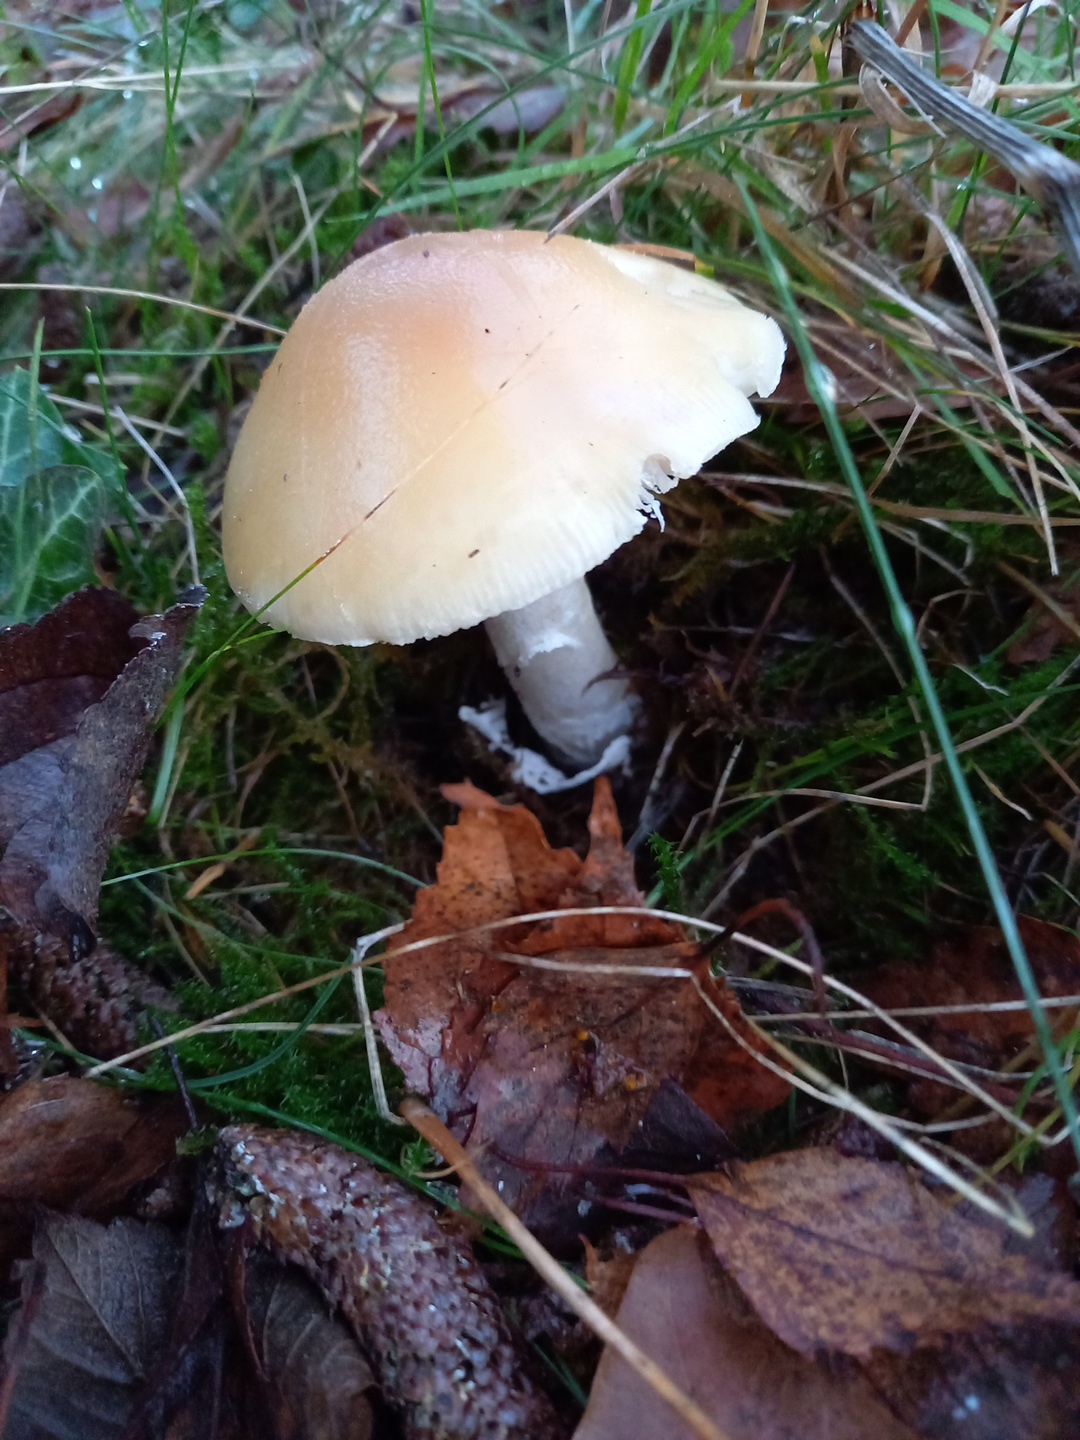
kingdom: Fungi
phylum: Basidiomycota
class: Agaricomycetes
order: Agaricales
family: Amanitaceae
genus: Amanita
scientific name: Amanita gemmata
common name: okkergul fluesvamp
